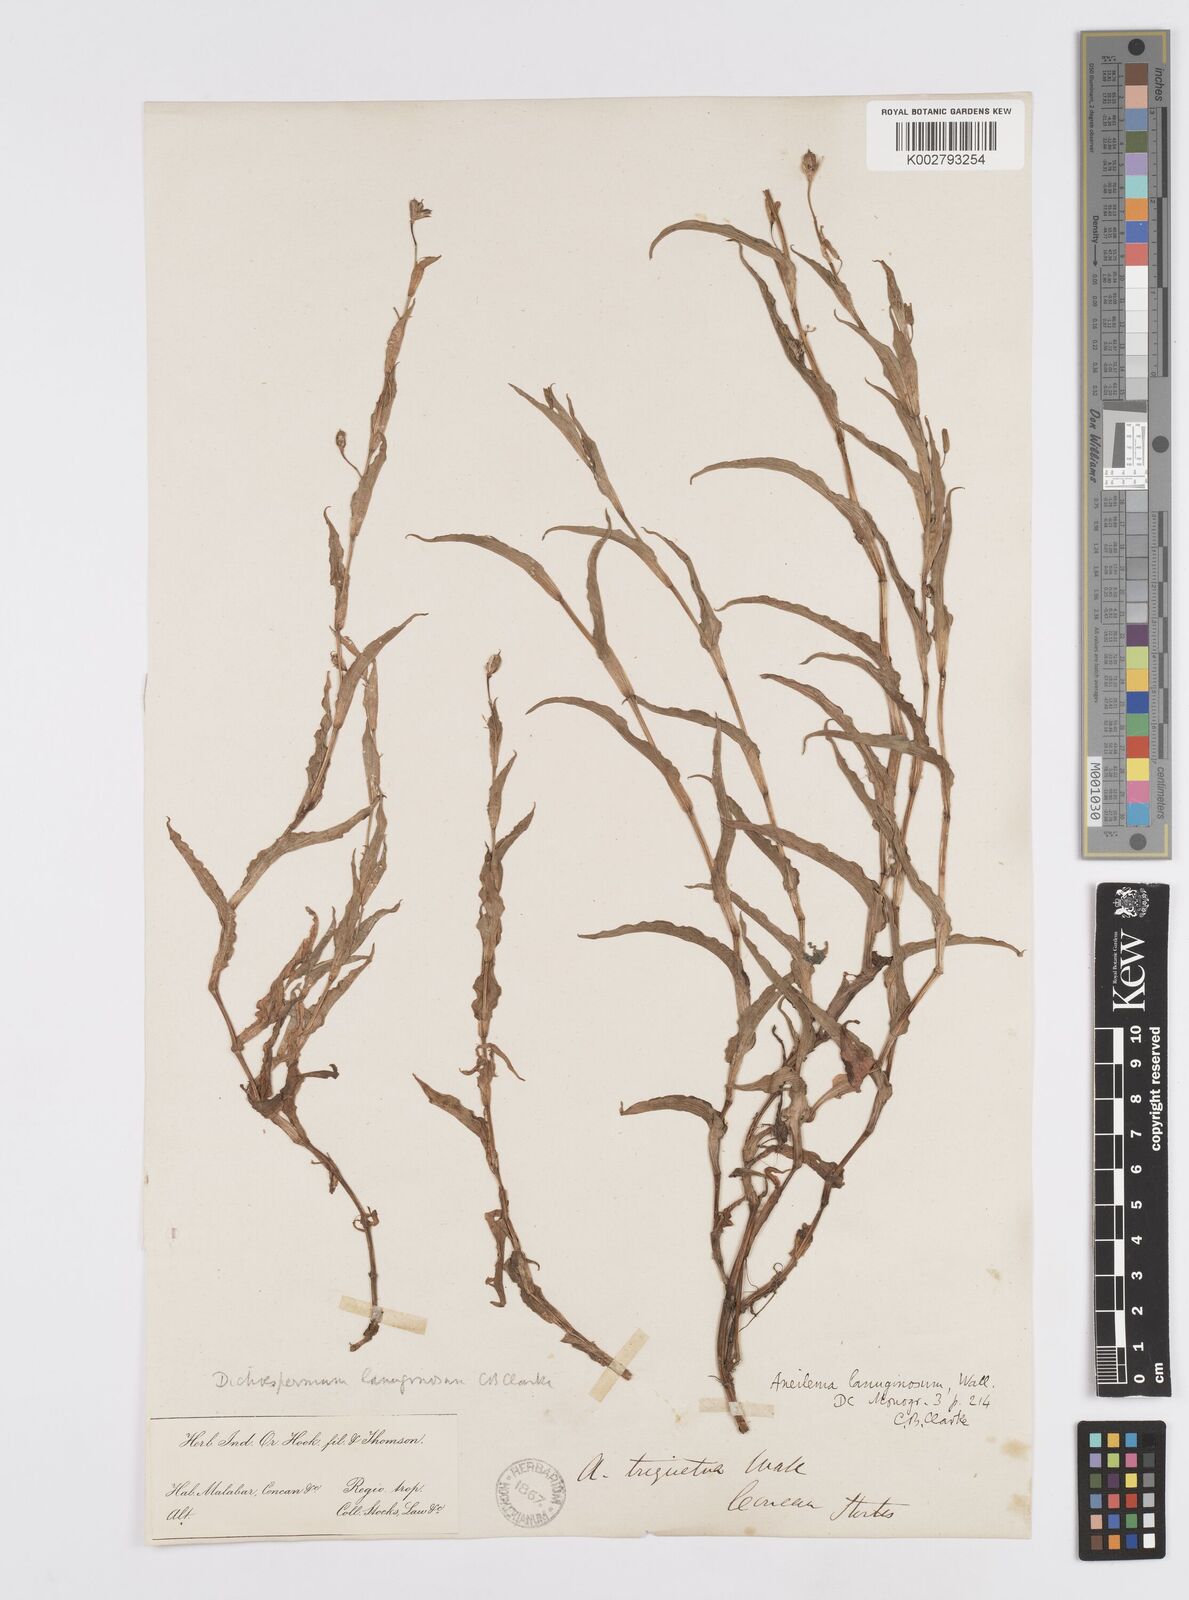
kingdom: Plantae
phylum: Tracheophyta
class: Liliopsida
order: Commelinales
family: Commelinaceae
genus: Murdannia
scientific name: Murdannia lanuginosa
